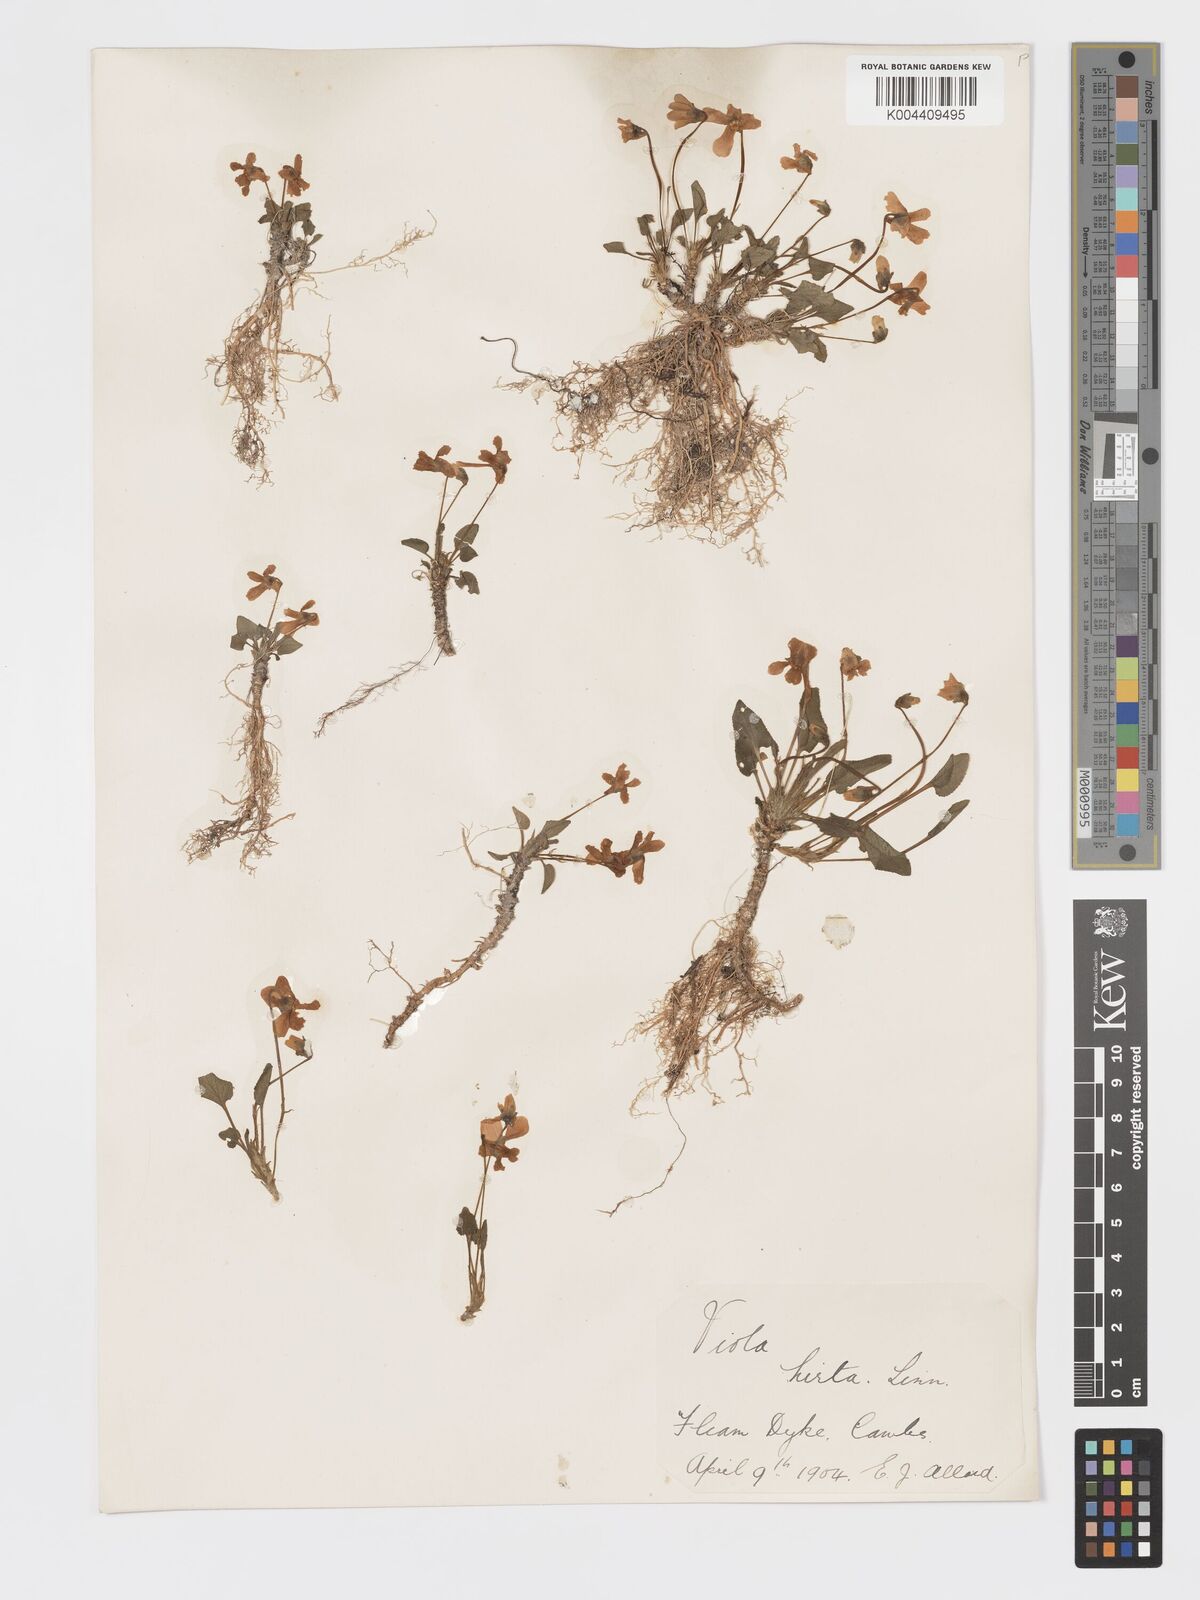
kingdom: Plantae
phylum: Tracheophyta
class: Magnoliopsida
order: Malpighiales
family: Violaceae
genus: Viola
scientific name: Viola
